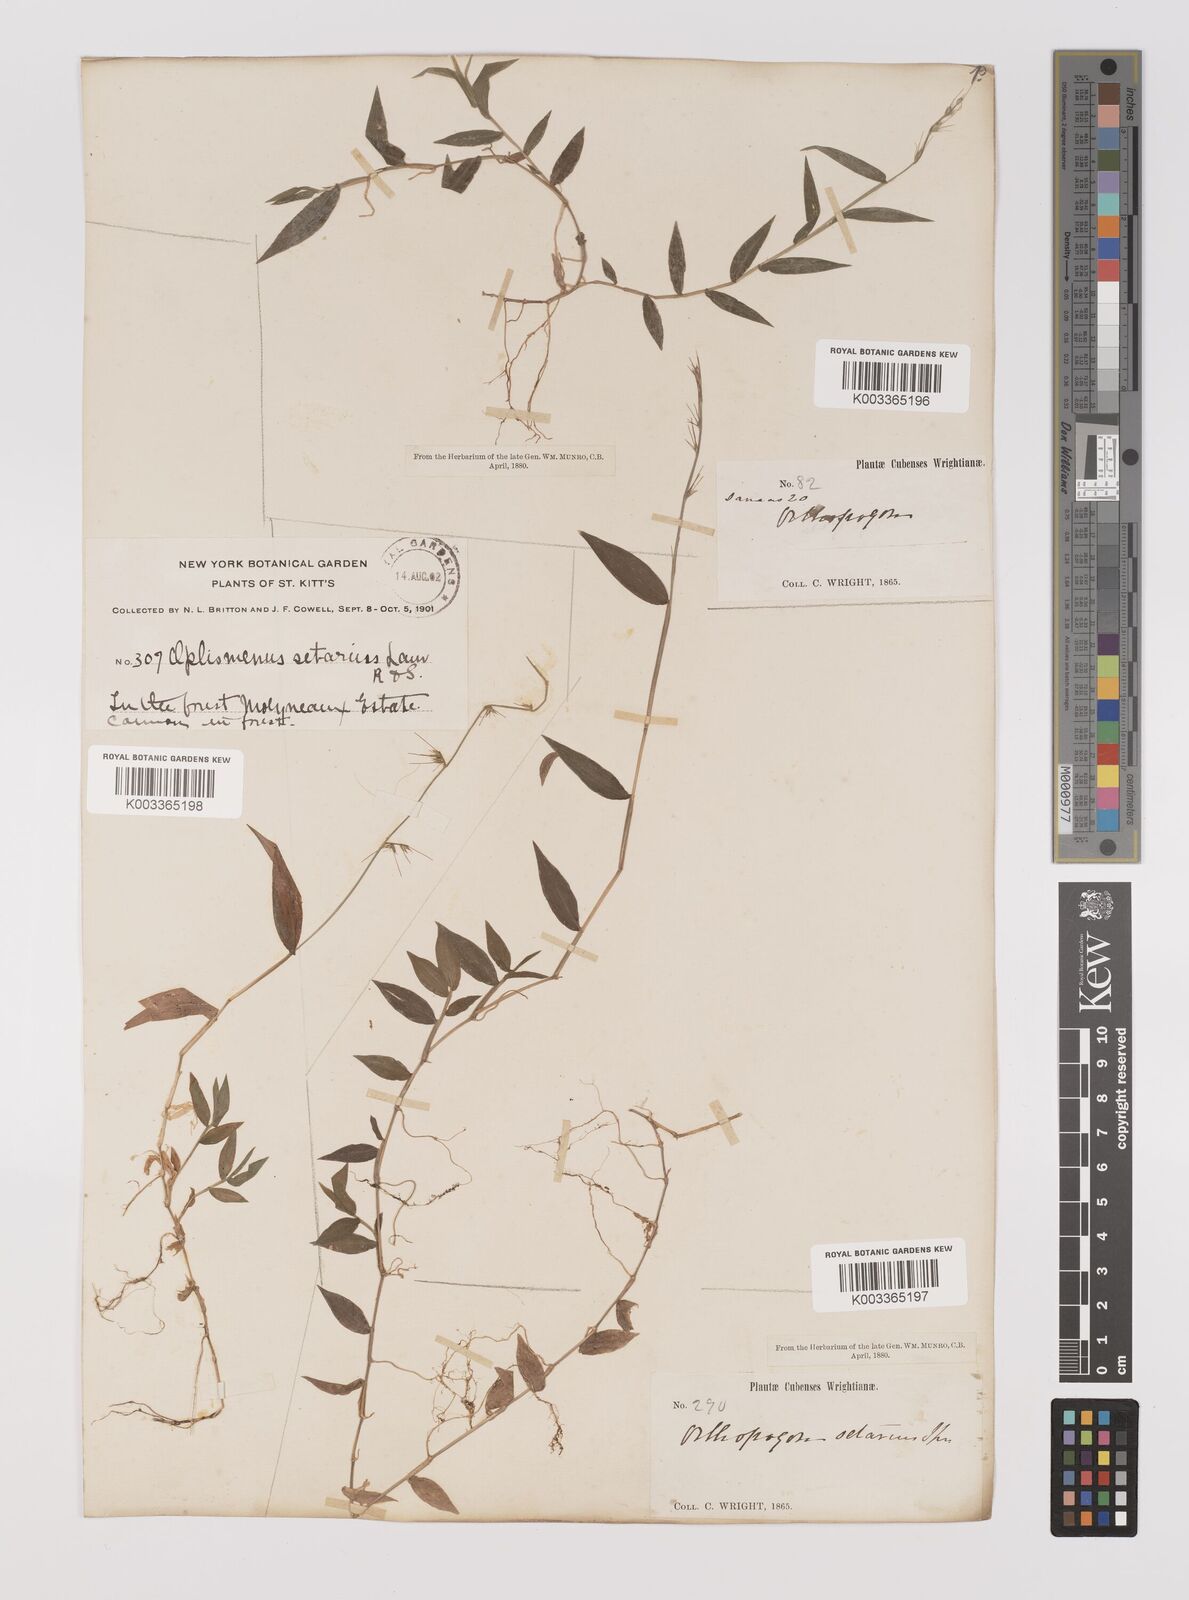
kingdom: Plantae
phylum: Tracheophyta
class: Liliopsida
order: Poales
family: Poaceae
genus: Oplismenus
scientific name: Oplismenus hirtellus
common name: Basketgrass
